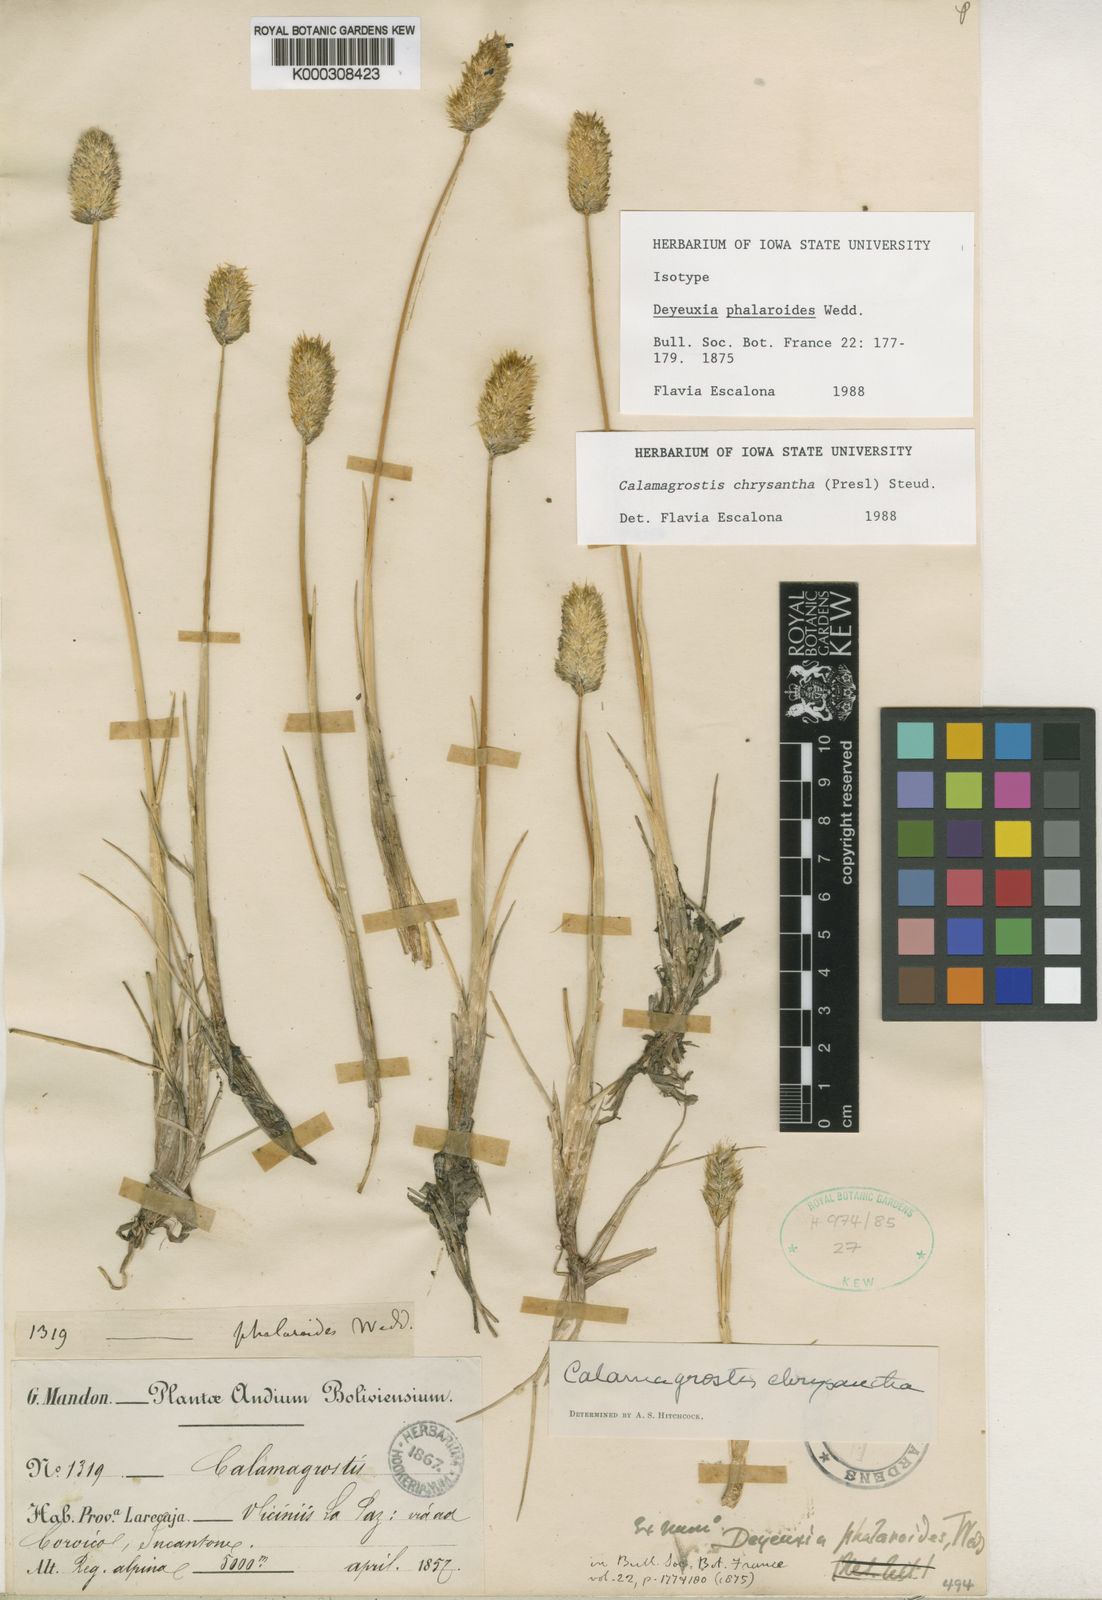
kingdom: Plantae
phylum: Tracheophyta
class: Liliopsida
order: Poales
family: Poaceae
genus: Deschampsia
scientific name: Deschampsia chrysantha
